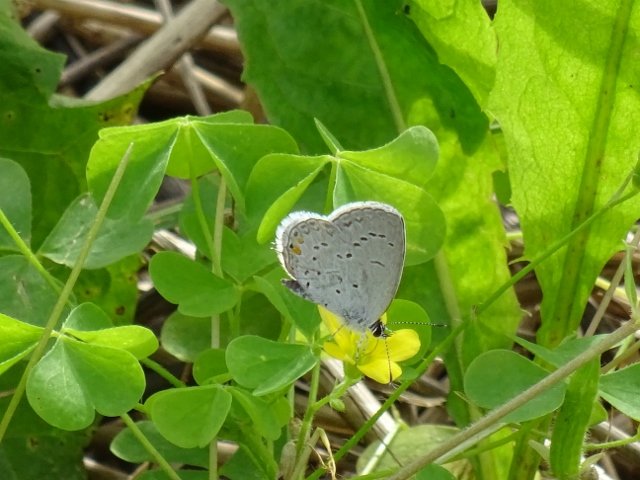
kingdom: Animalia
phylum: Arthropoda
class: Insecta
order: Lepidoptera
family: Lycaenidae
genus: Elkalyce
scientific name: Elkalyce comyntas
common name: Eastern Tailed-Blue
